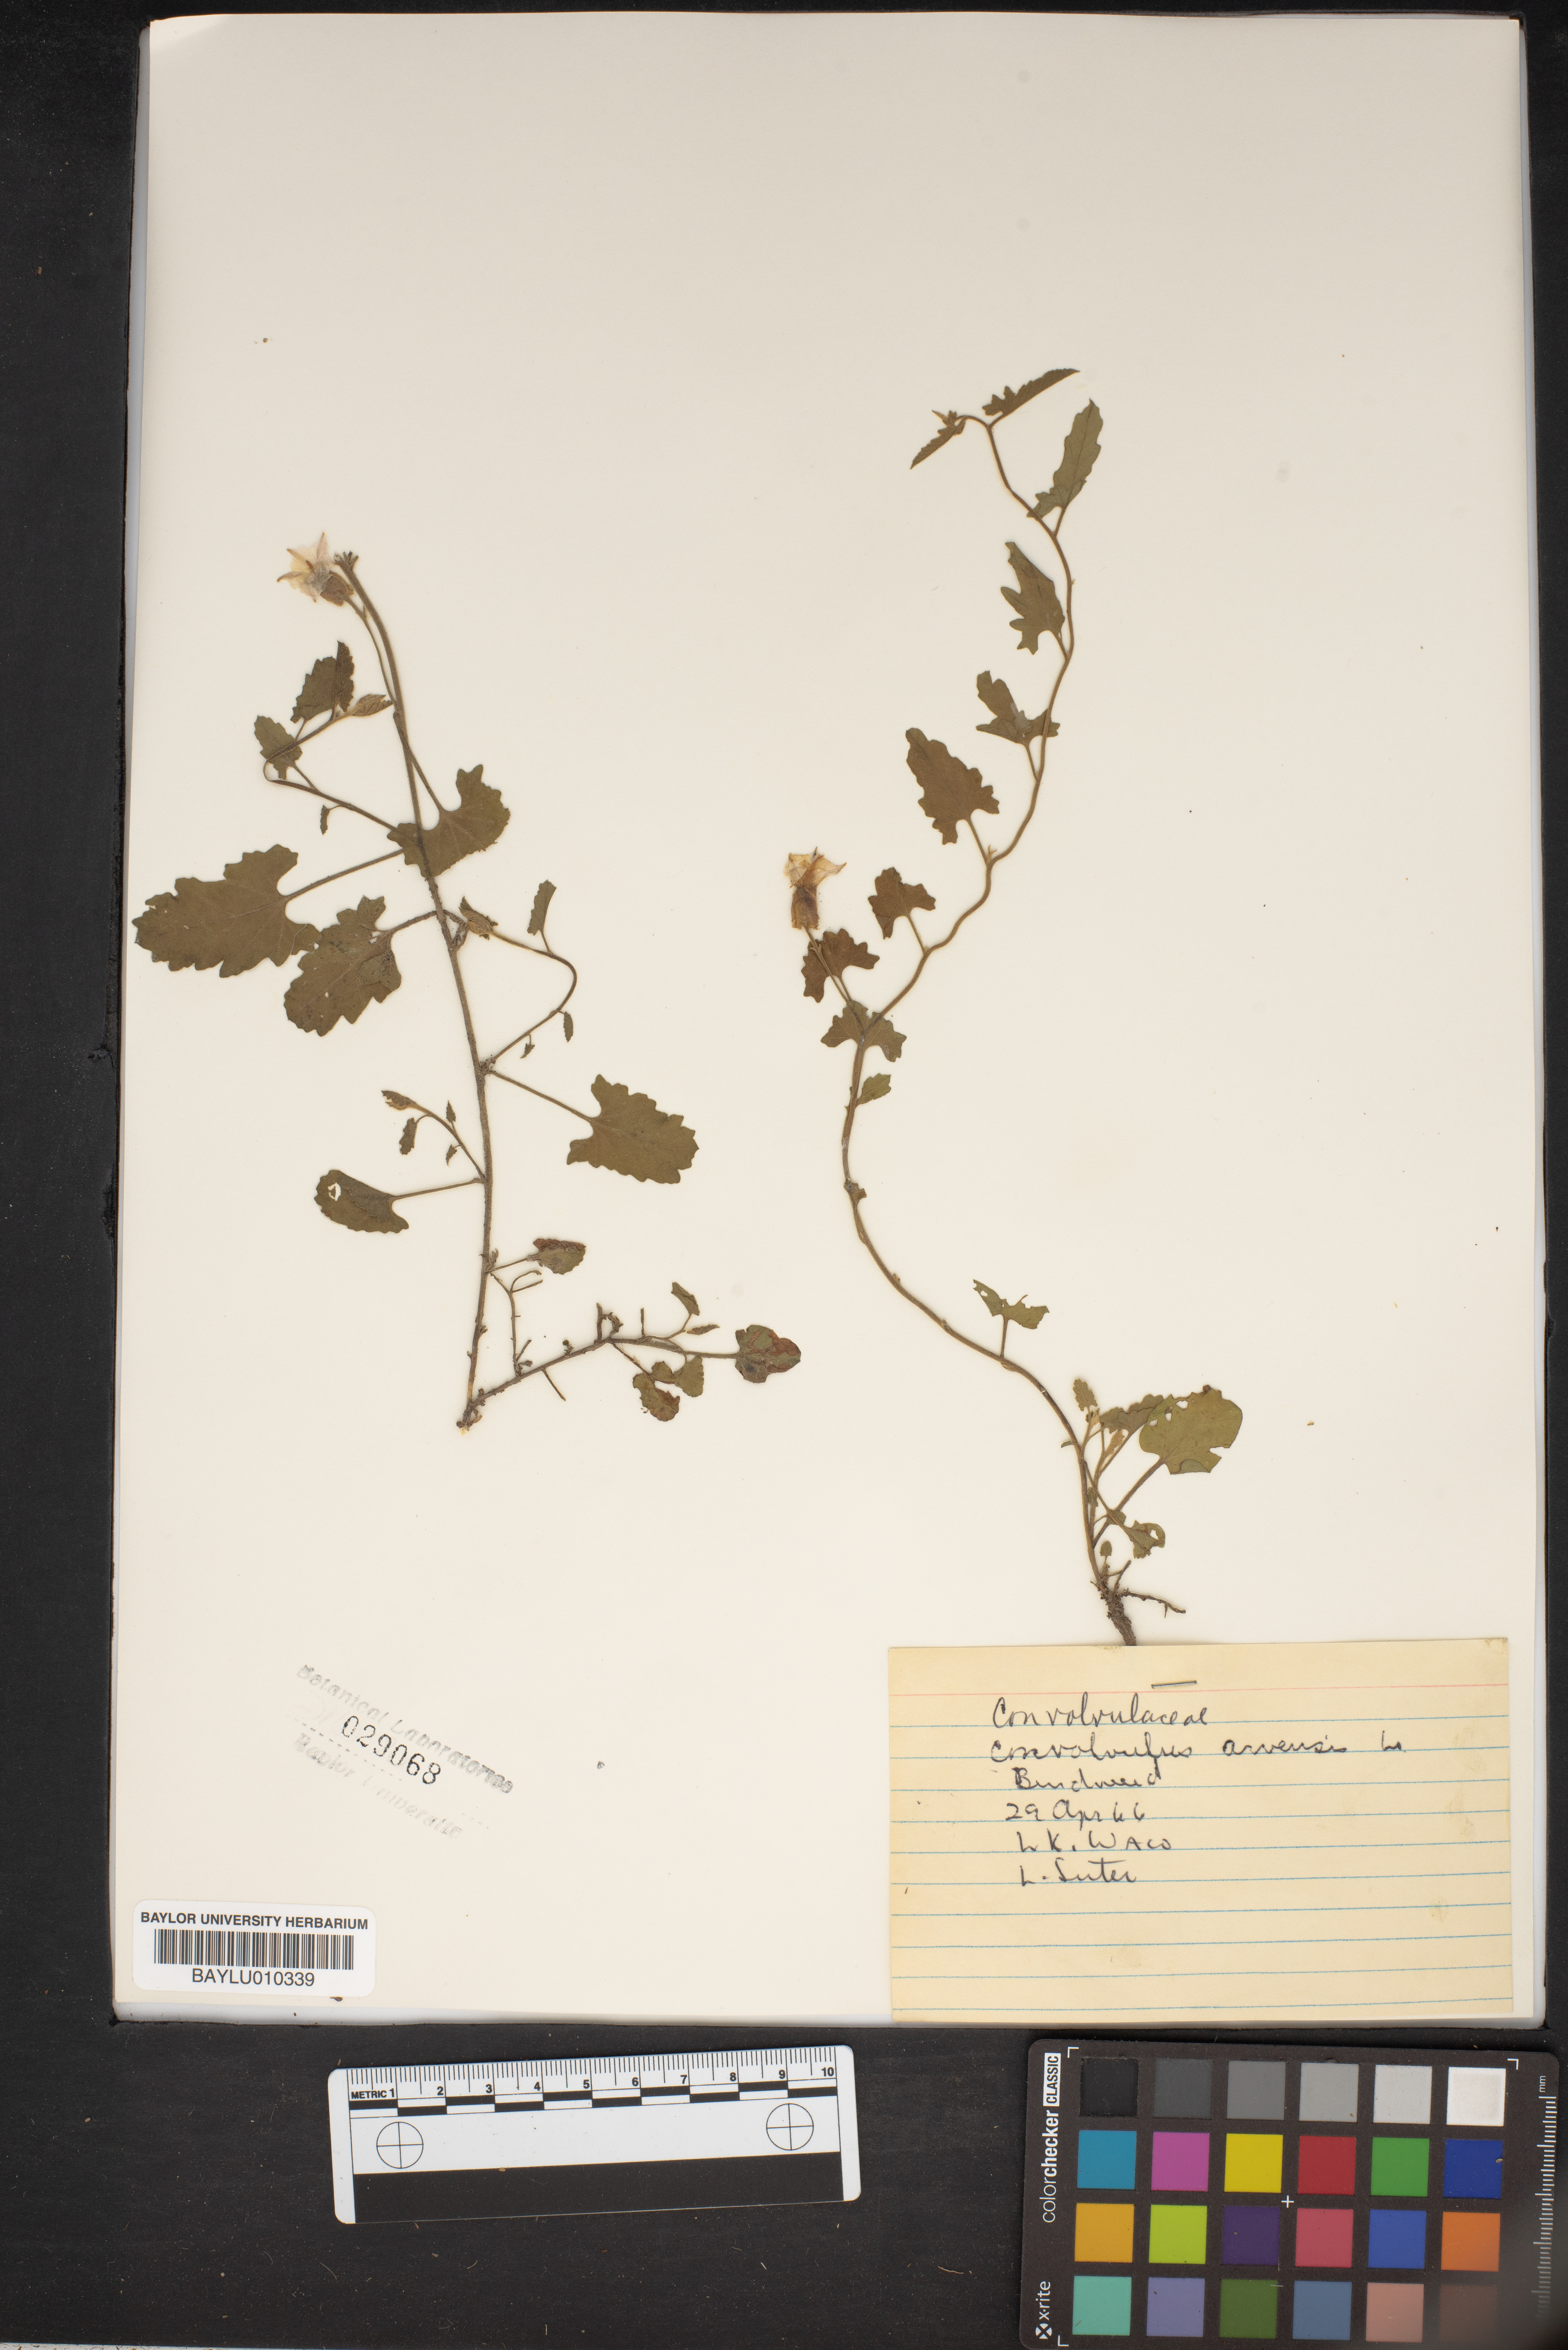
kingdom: Plantae
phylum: Tracheophyta
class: Magnoliopsida
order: Solanales
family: Convolvulaceae
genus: Convolvulus
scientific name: Convolvulus arvensis
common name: Field bindweed
